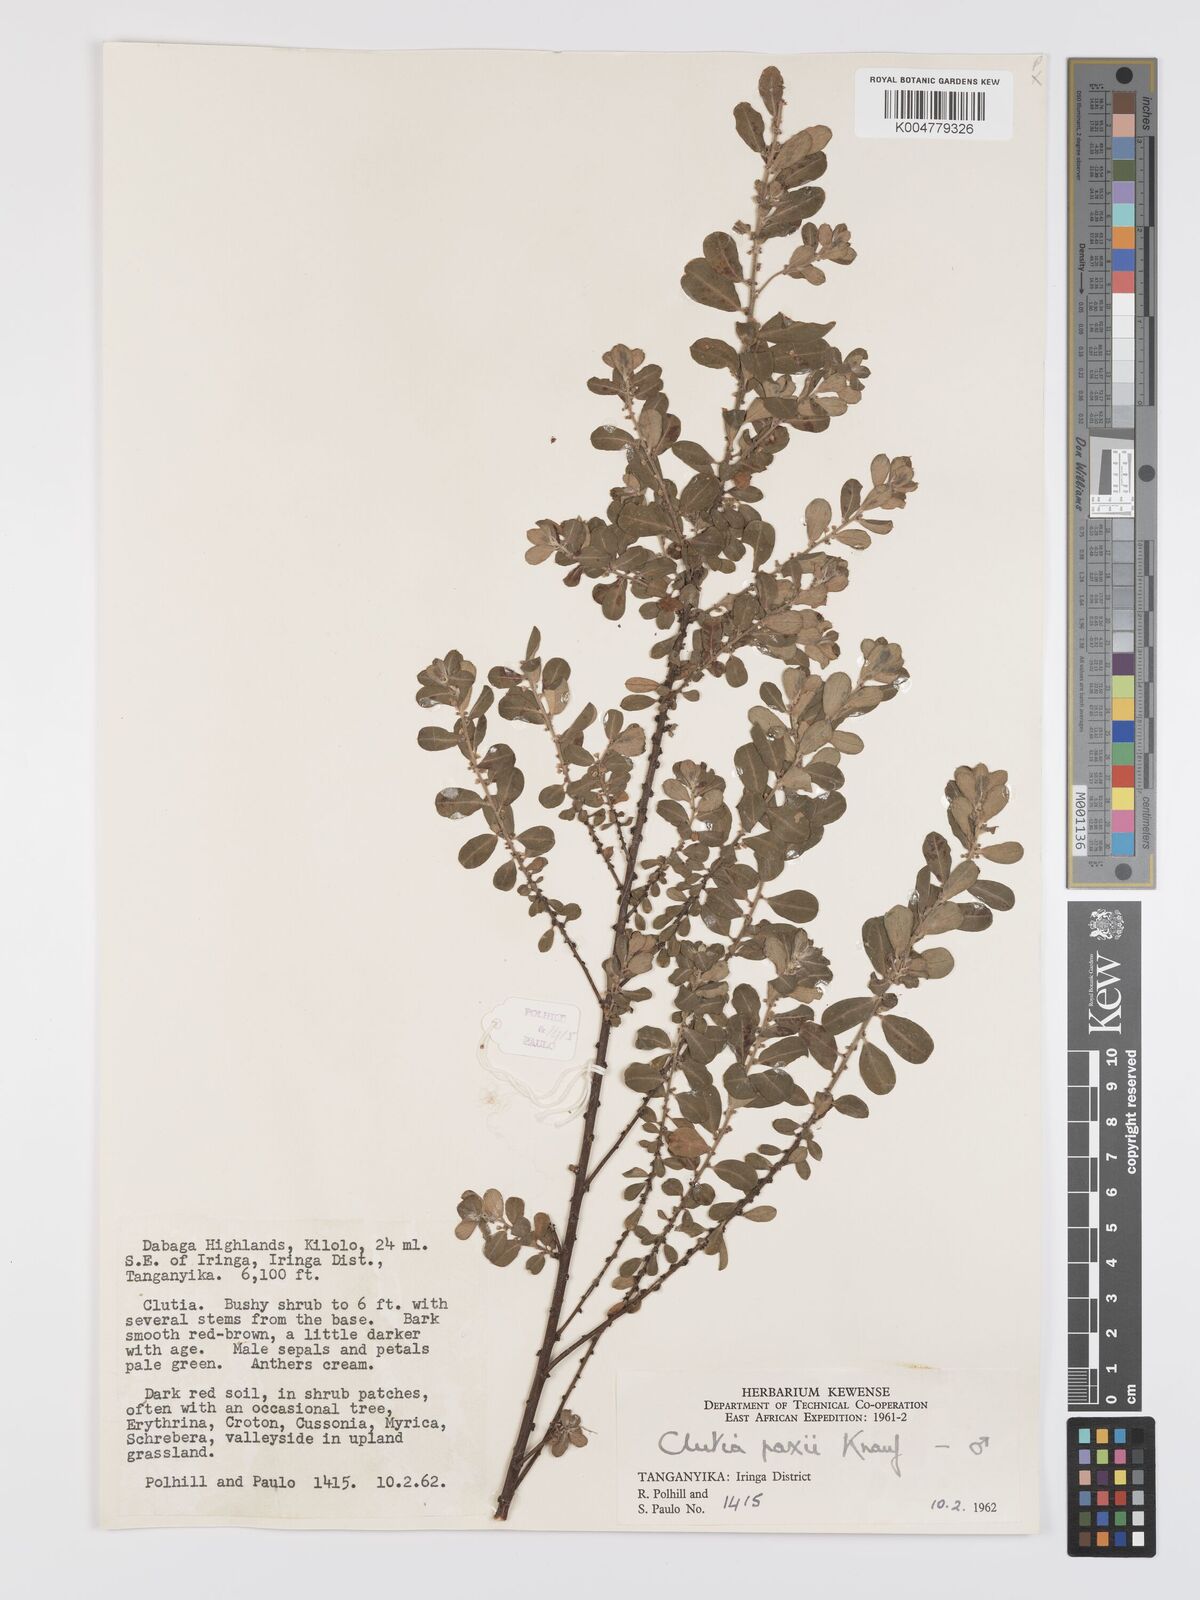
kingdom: Plantae
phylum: Tracheophyta
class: Magnoliopsida
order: Malpighiales
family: Peraceae
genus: Clutia
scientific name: Clutia paxii
